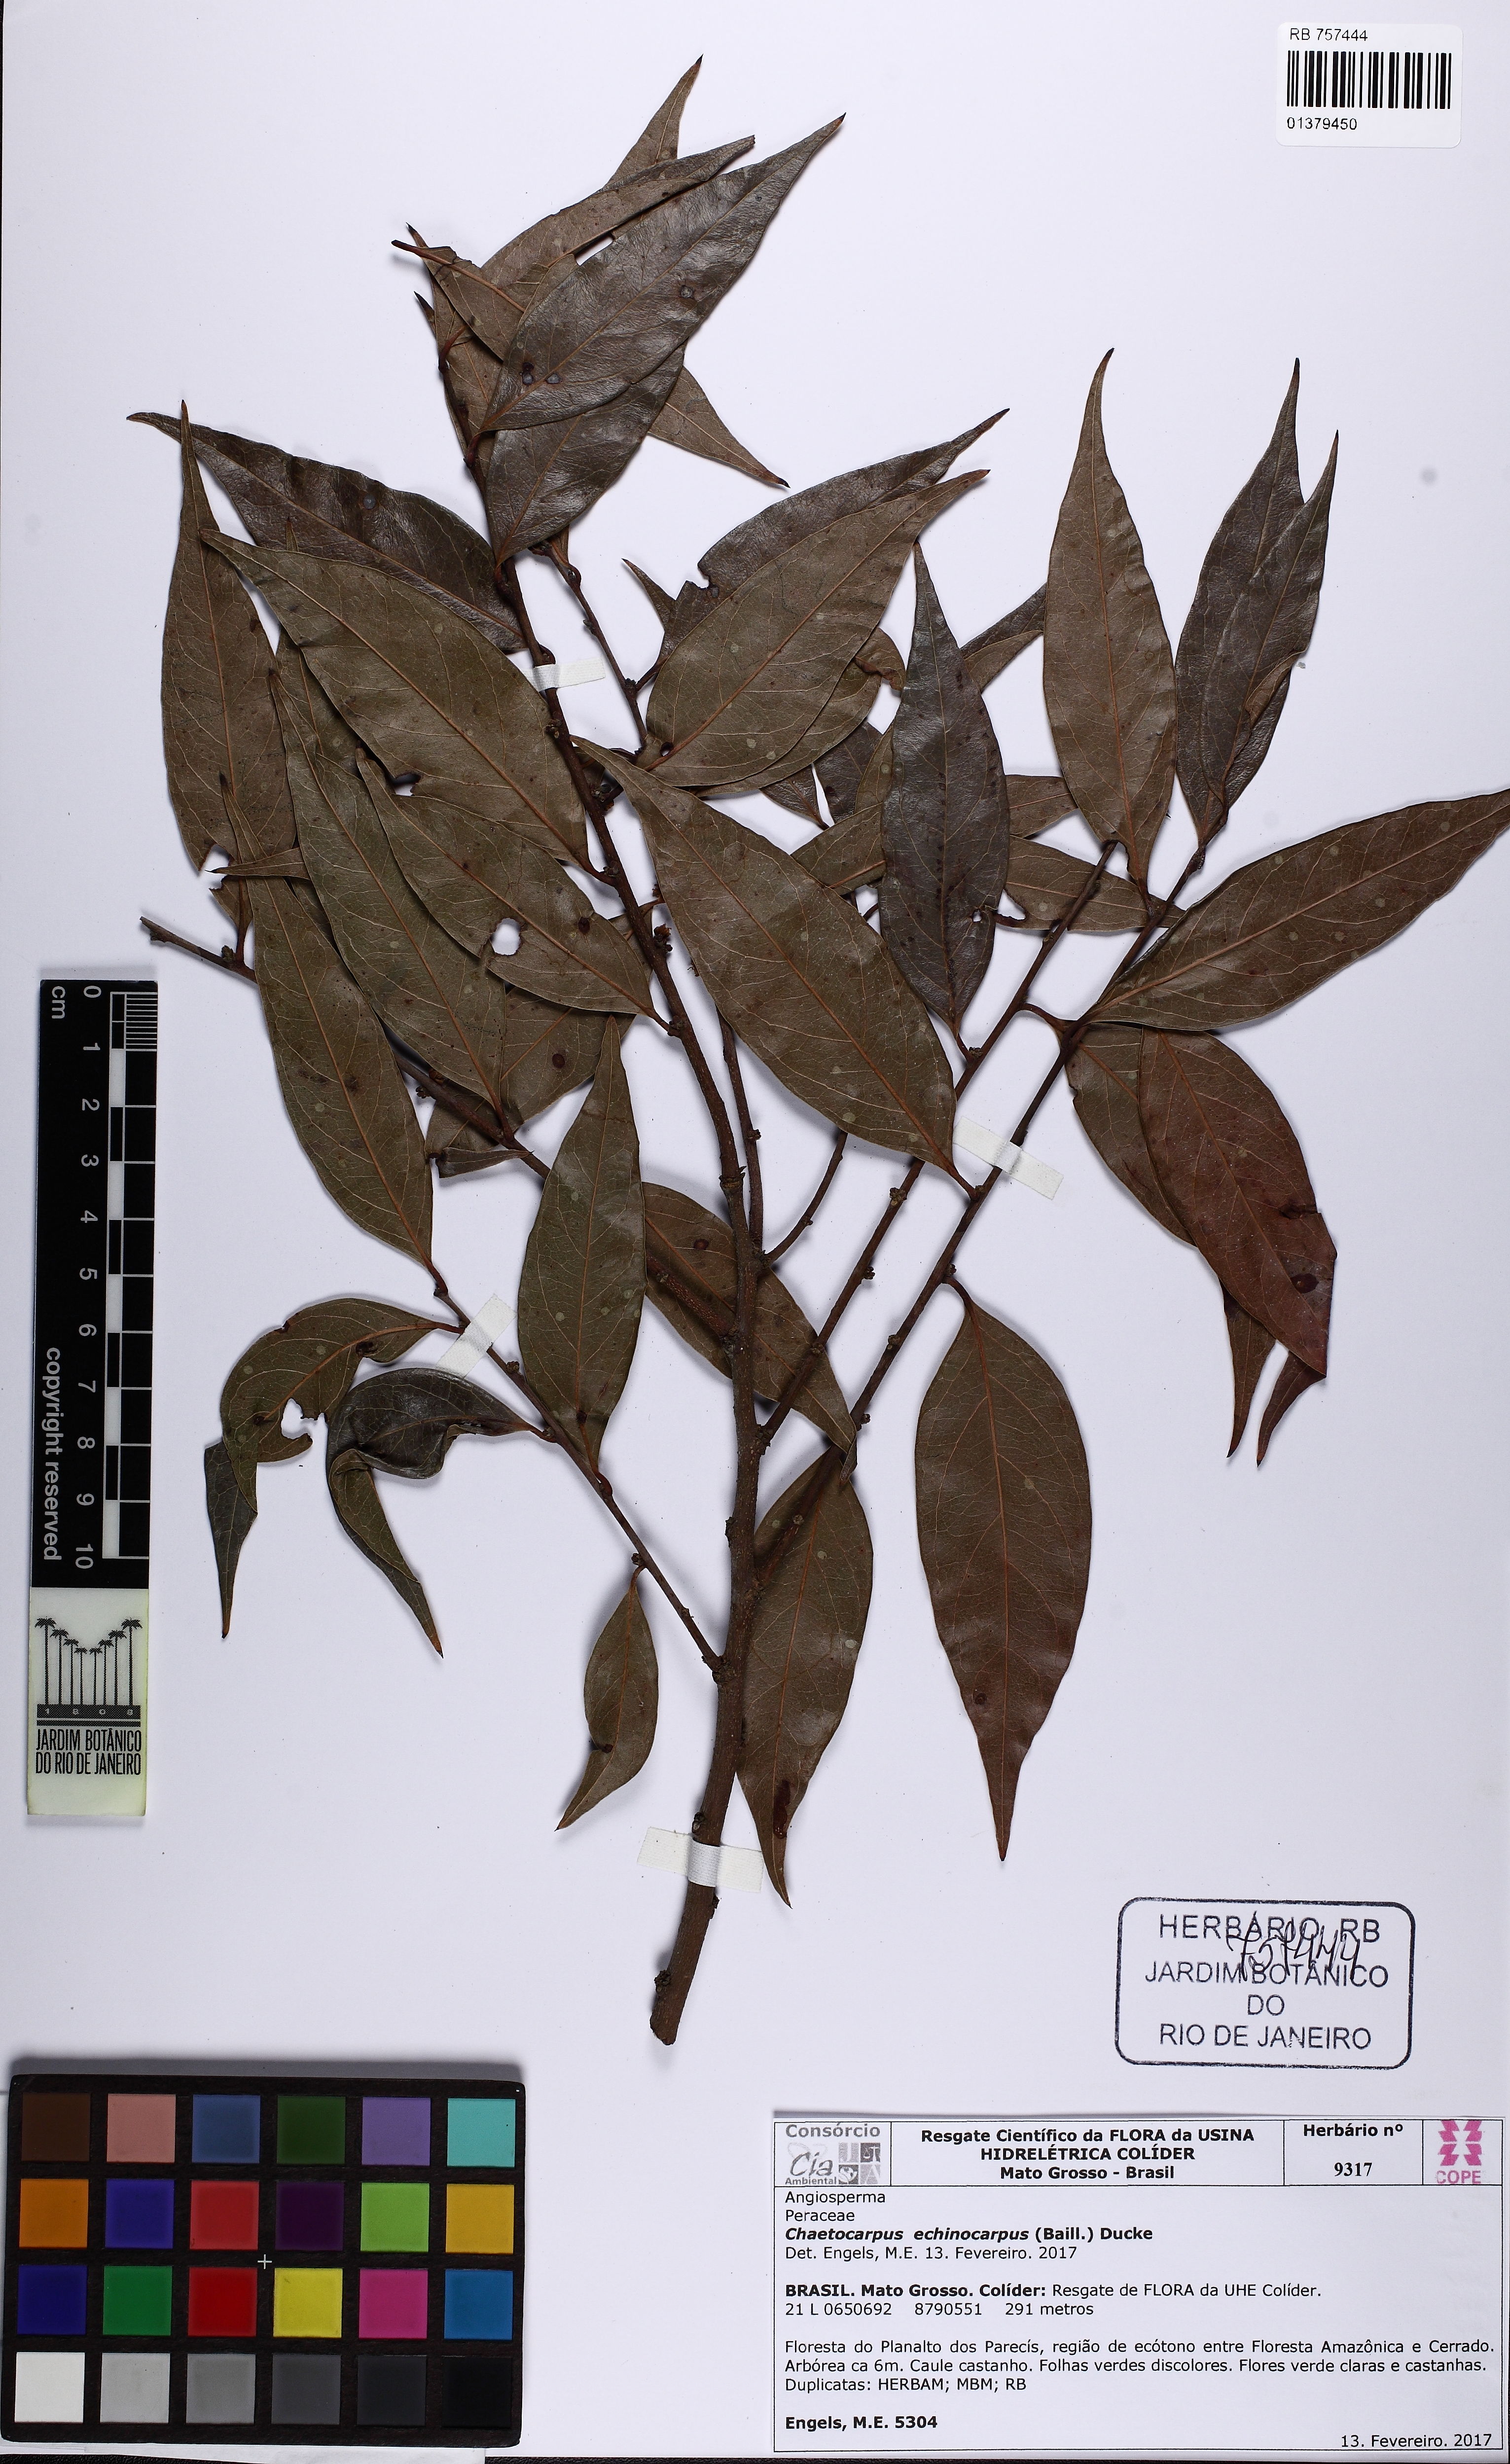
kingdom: Plantae
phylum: Tracheophyta
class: Magnoliopsida
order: Malpighiales
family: Peraceae
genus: Chaetocarpus
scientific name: Chaetocarpus echinocarpus
